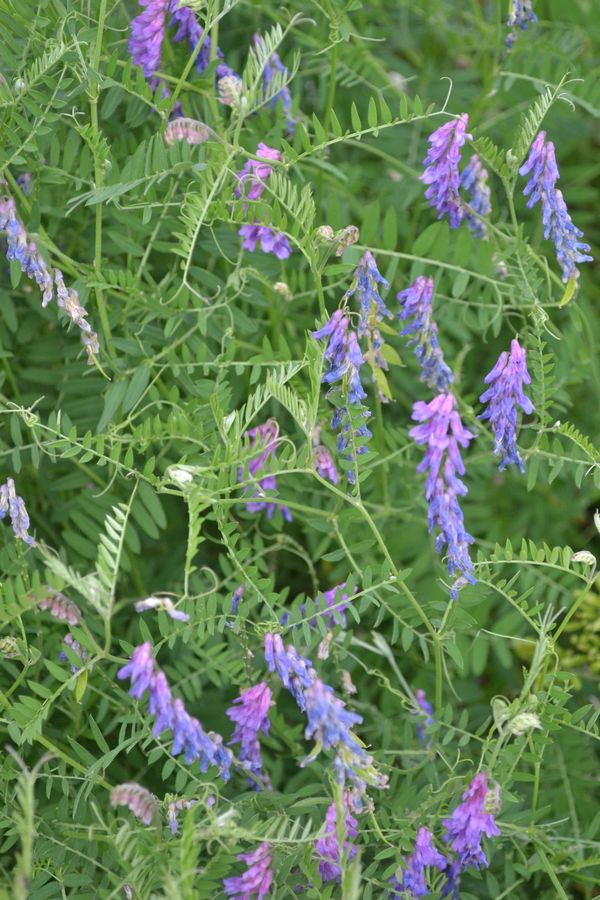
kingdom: Plantae
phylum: Tracheophyta
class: Magnoliopsida
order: Fabales
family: Fabaceae
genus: Vicia
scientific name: Vicia cracca
